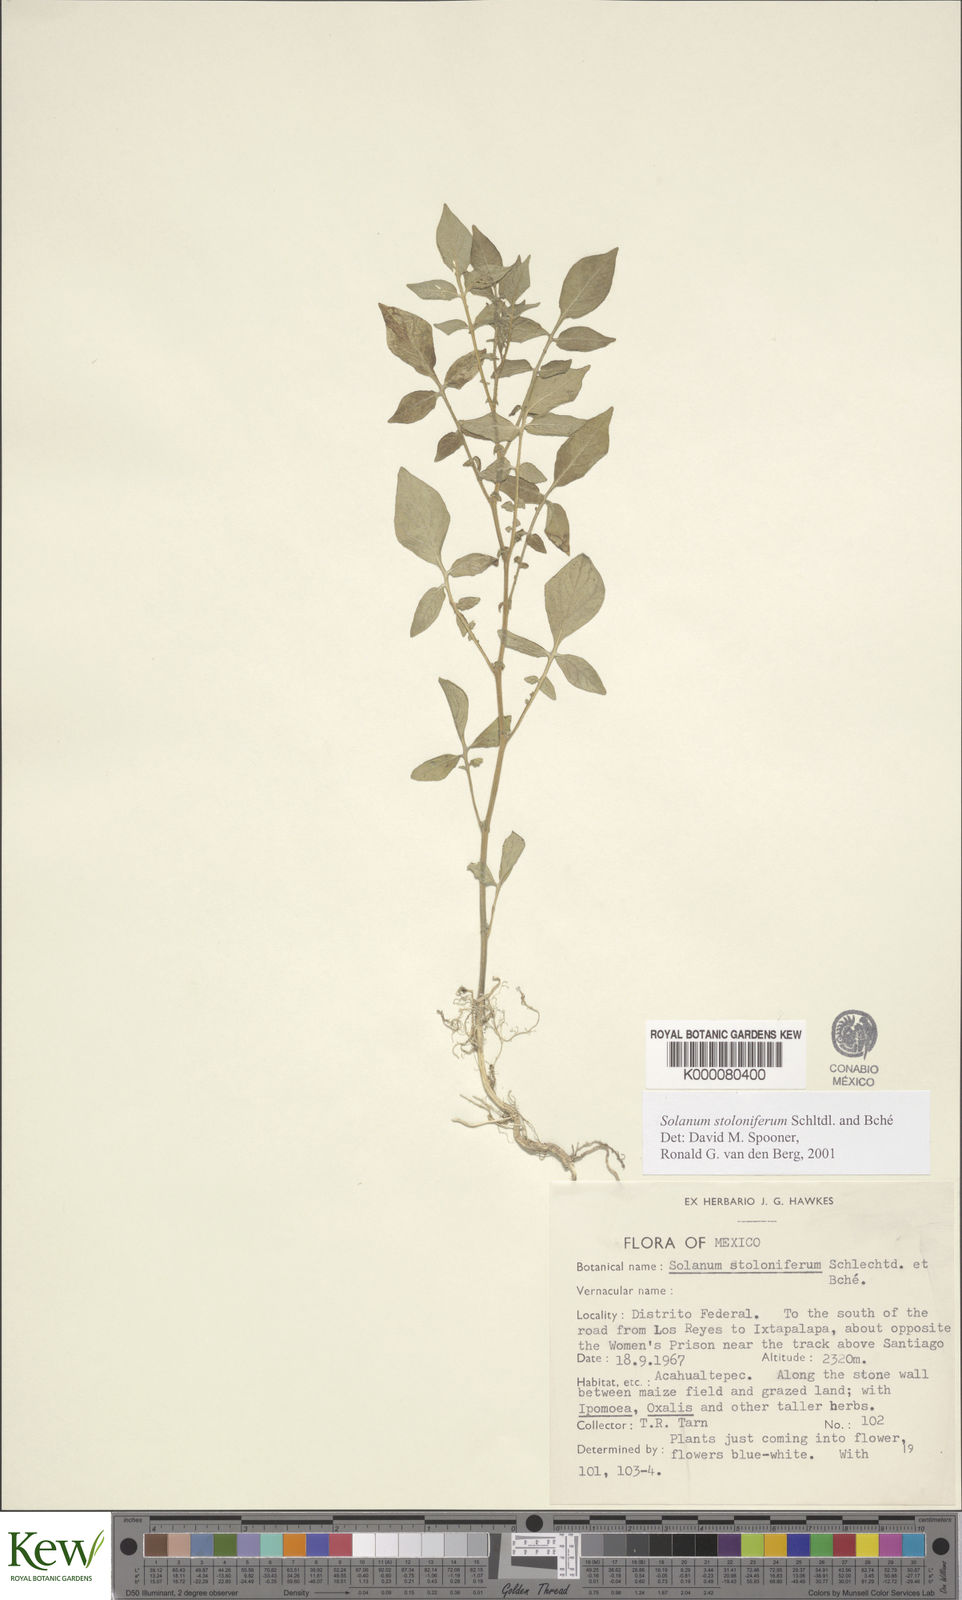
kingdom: Plantae
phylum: Tracheophyta
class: Magnoliopsida
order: Solanales
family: Solanaceae
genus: Solanum
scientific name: Solanum stoloniferum
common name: Fendler's nighshade
